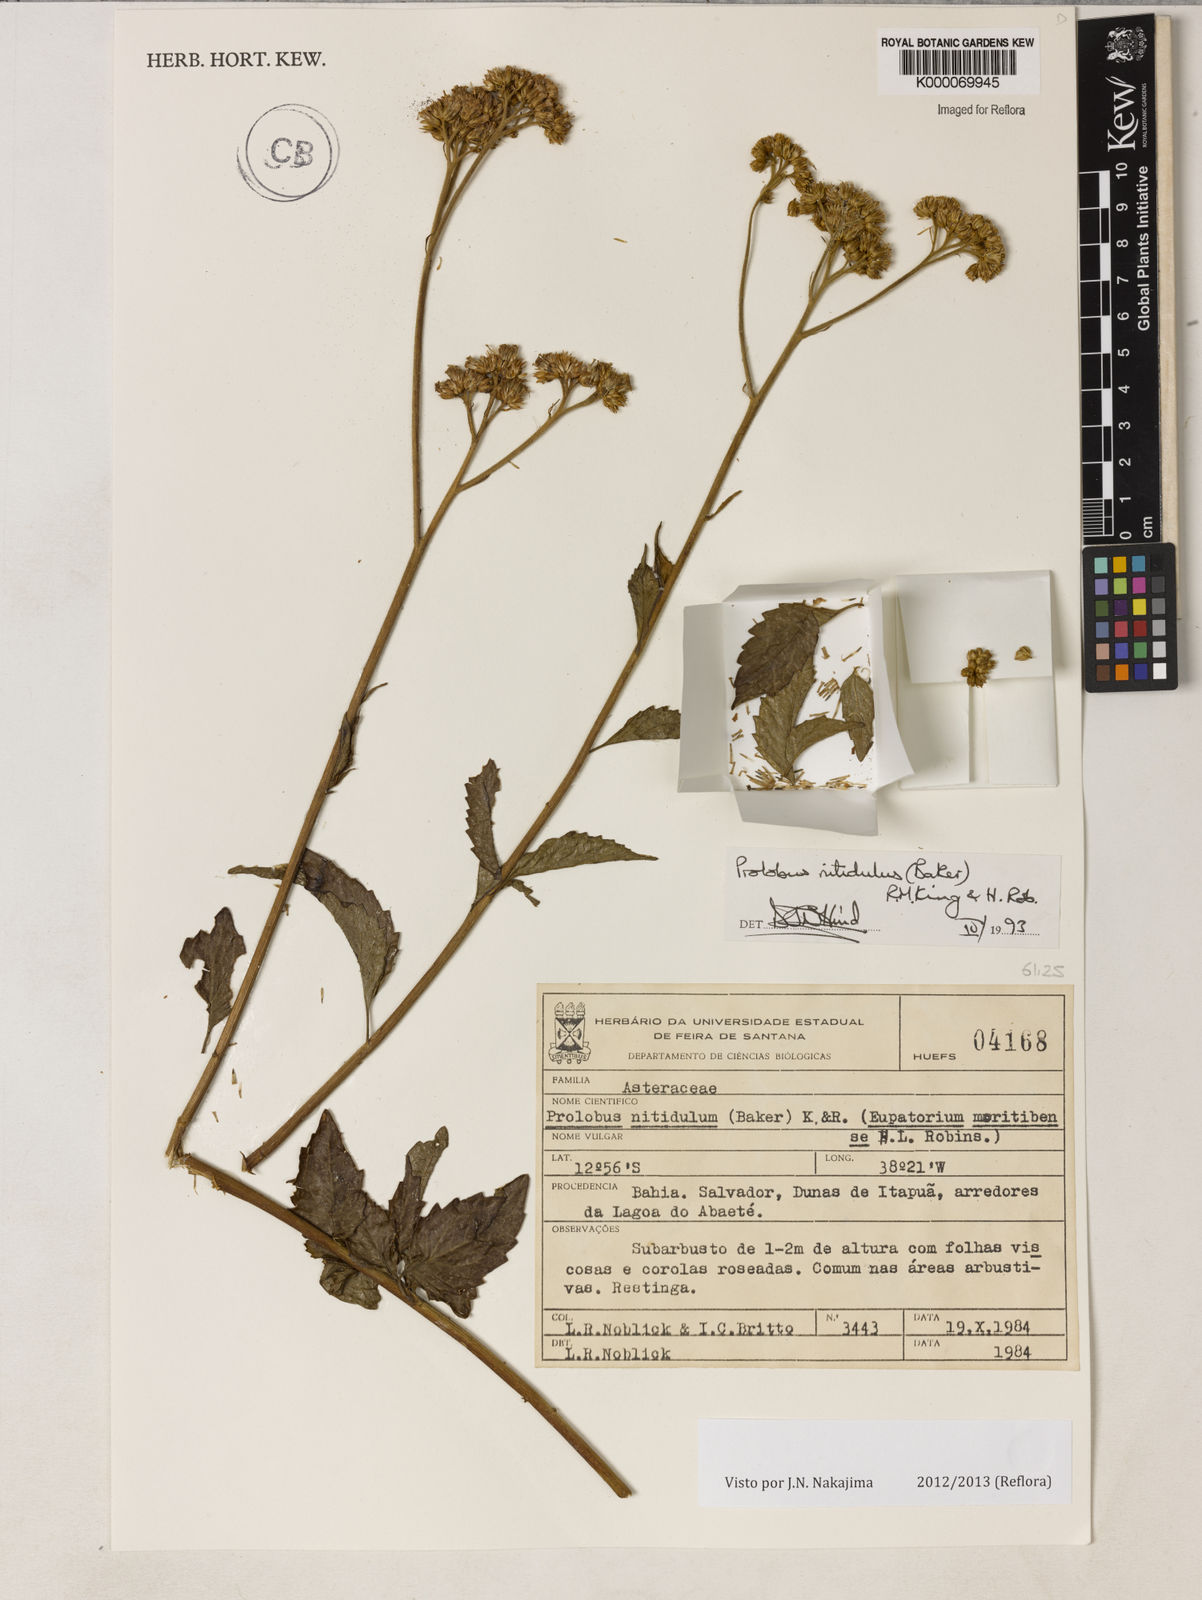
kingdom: Plantae
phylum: Tracheophyta
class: Magnoliopsida
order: Asterales
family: Asteraceae
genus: Prolobus
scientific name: Prolobus nitidulus
